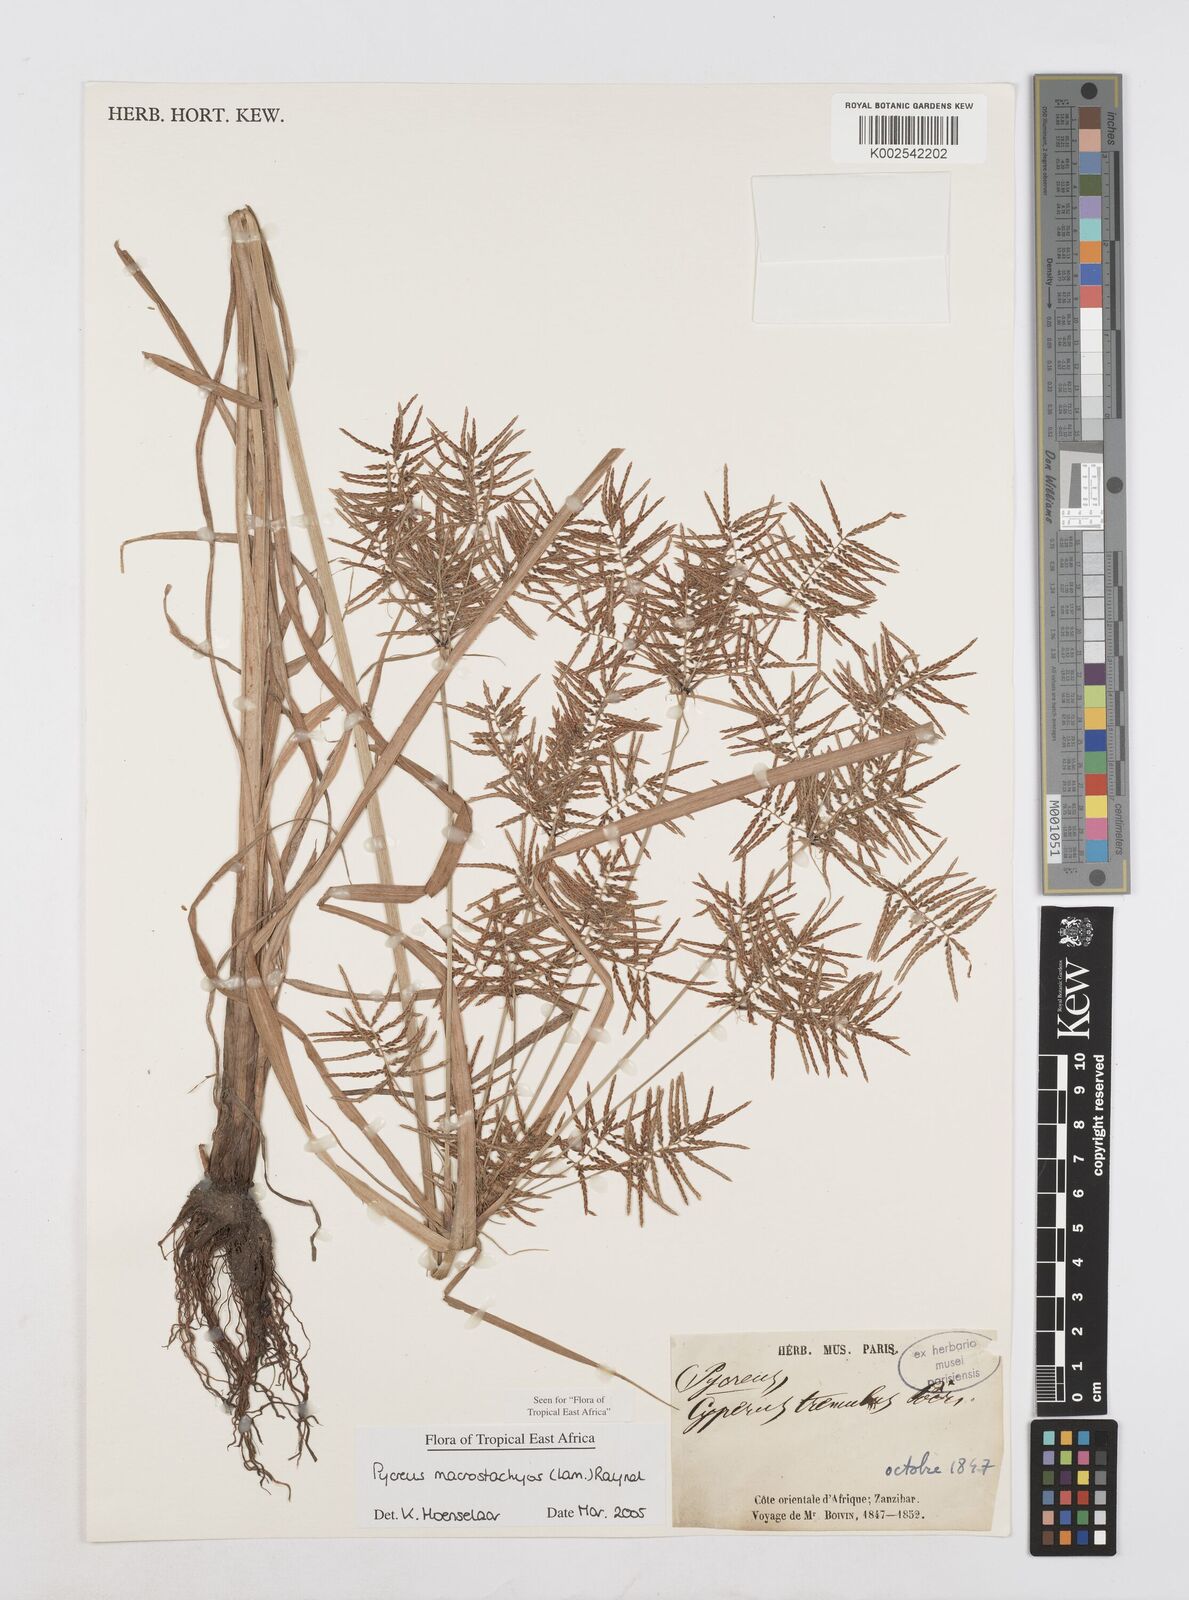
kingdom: Plantae
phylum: Tracheophyta
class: Liliopsida
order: Poales
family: Cyperaceae
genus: Cyperus
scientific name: Cyperus macrostachyos
